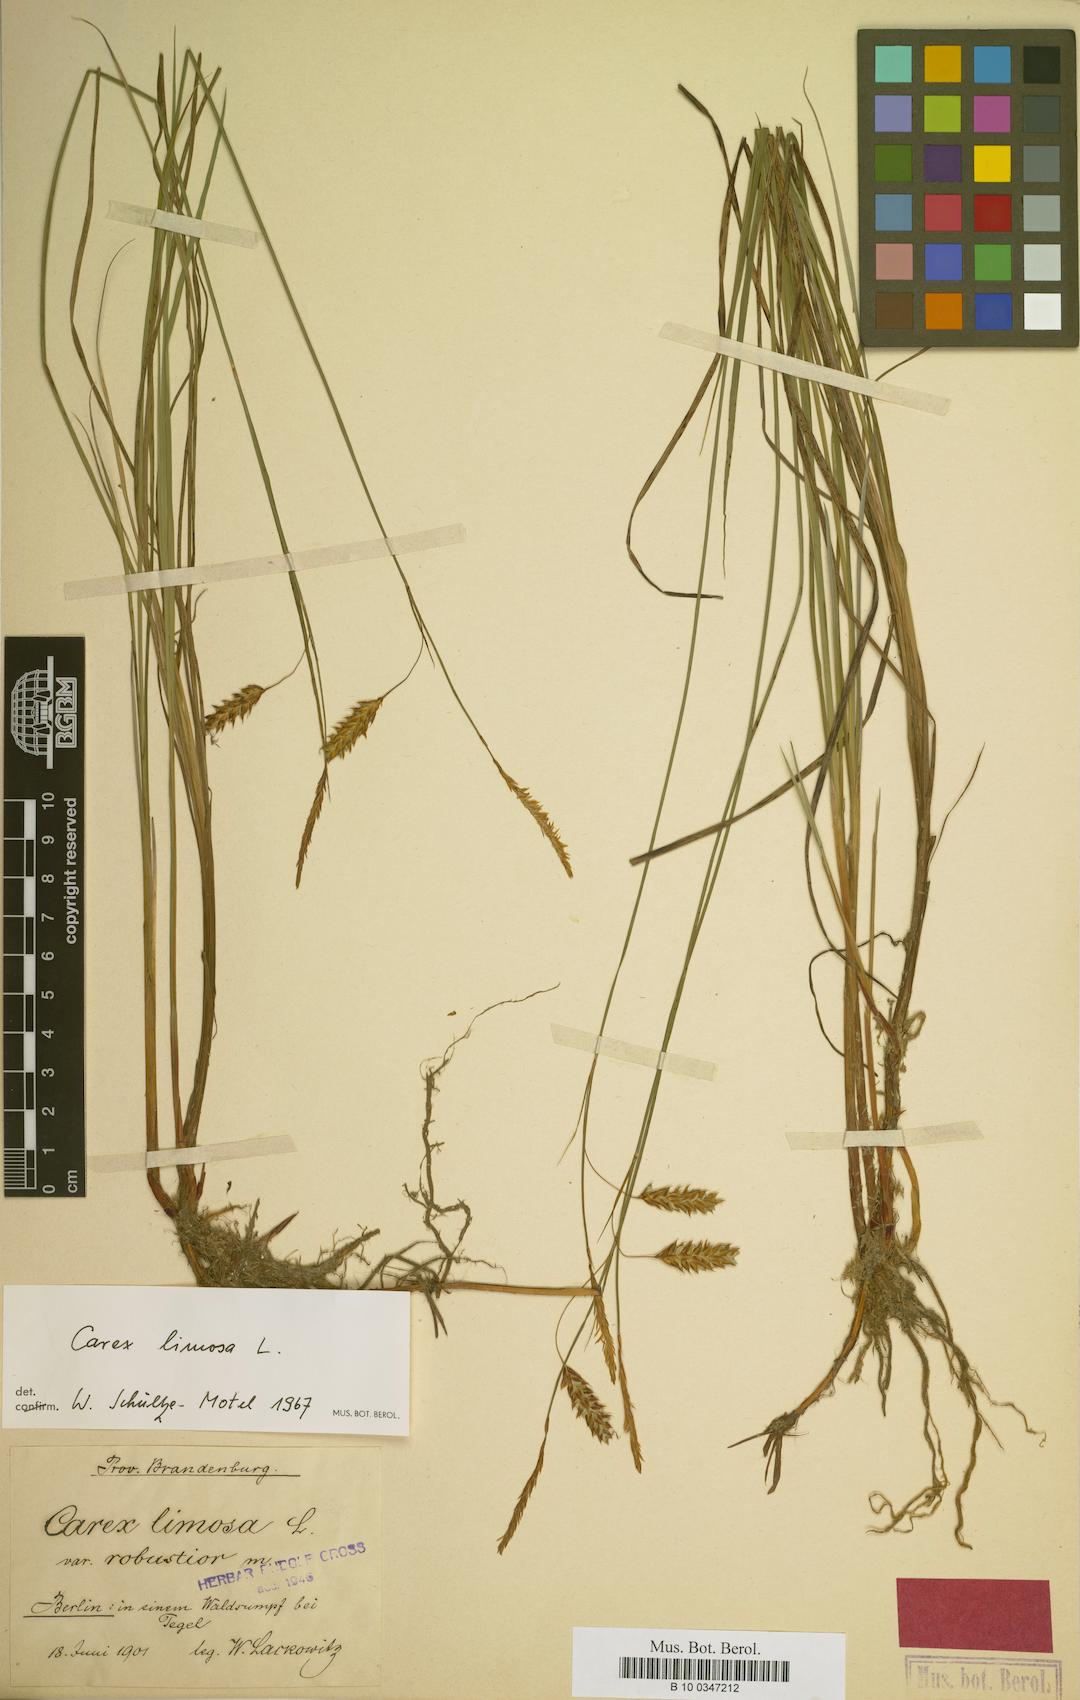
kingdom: Plantae
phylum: Tracheophyta
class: Liliopsida
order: Poales
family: Cyperaceae
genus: Carex
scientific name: Carex limosa
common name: Bog sedge
